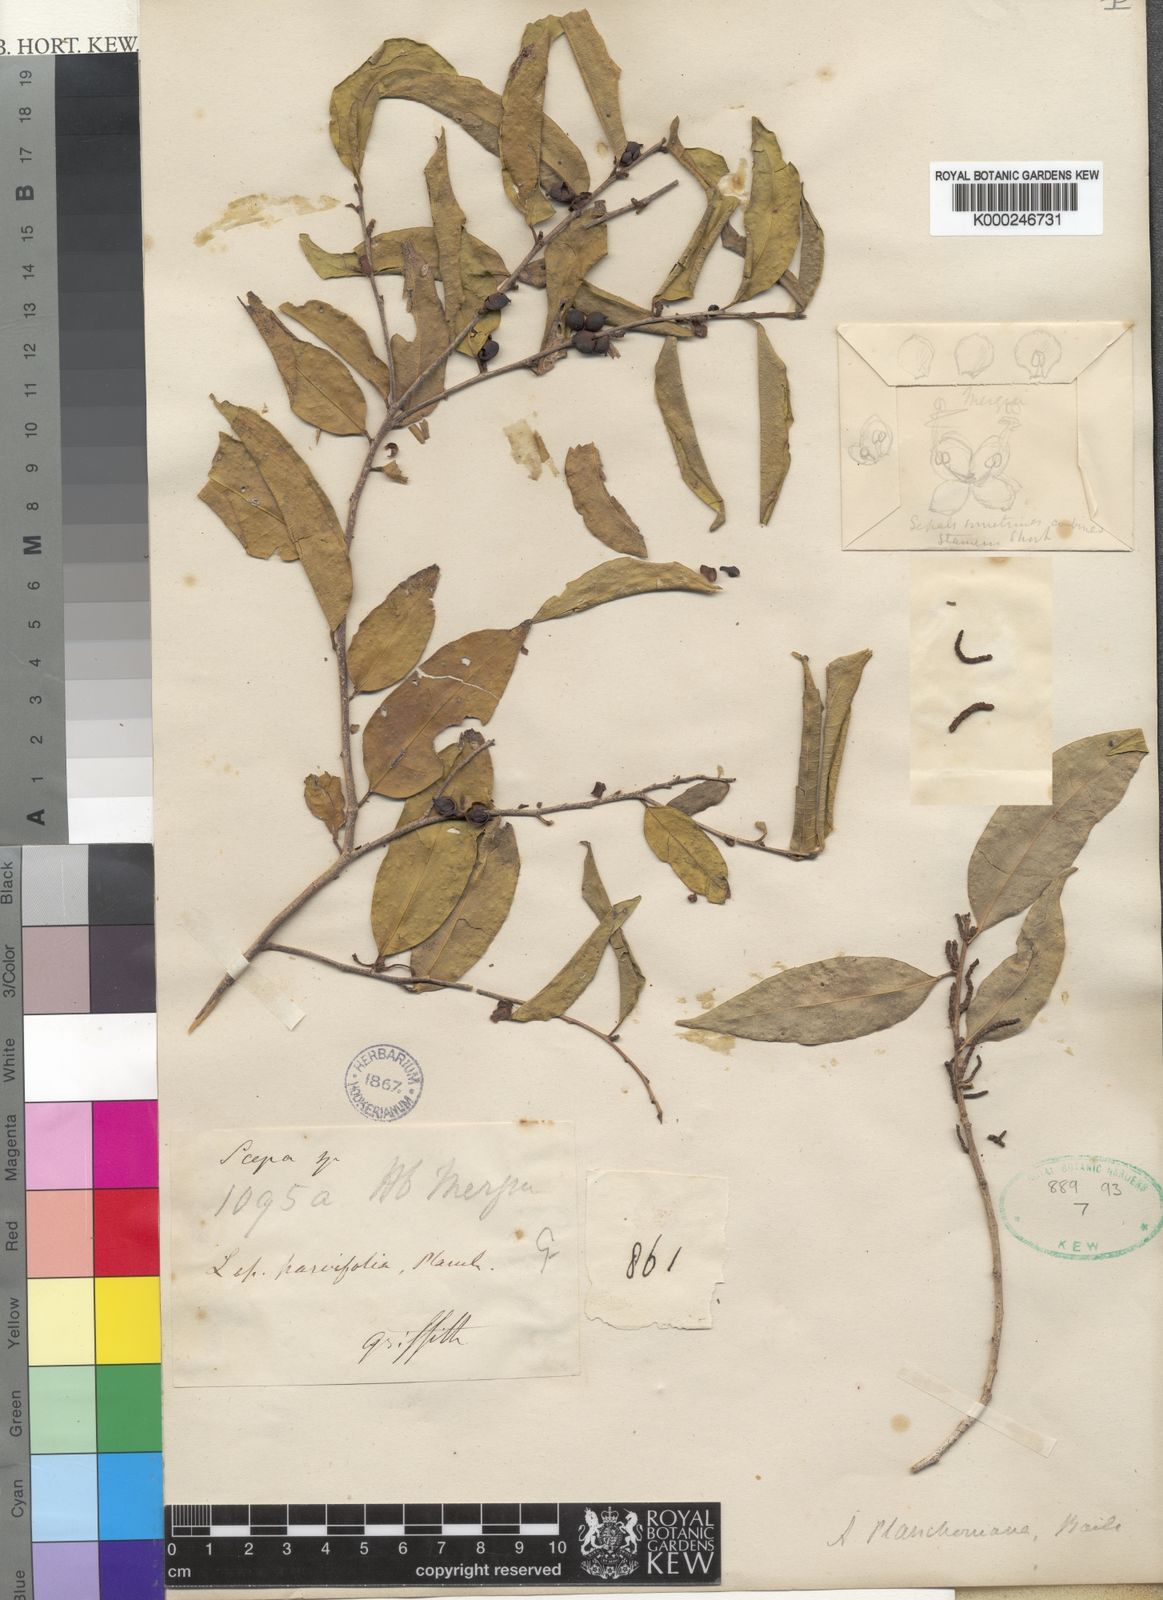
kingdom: Plantae
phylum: Tracheophyta
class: Magnoliopsida
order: Malpighiales
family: Phyllanthaceae
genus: Aporosa
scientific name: Aporosa
